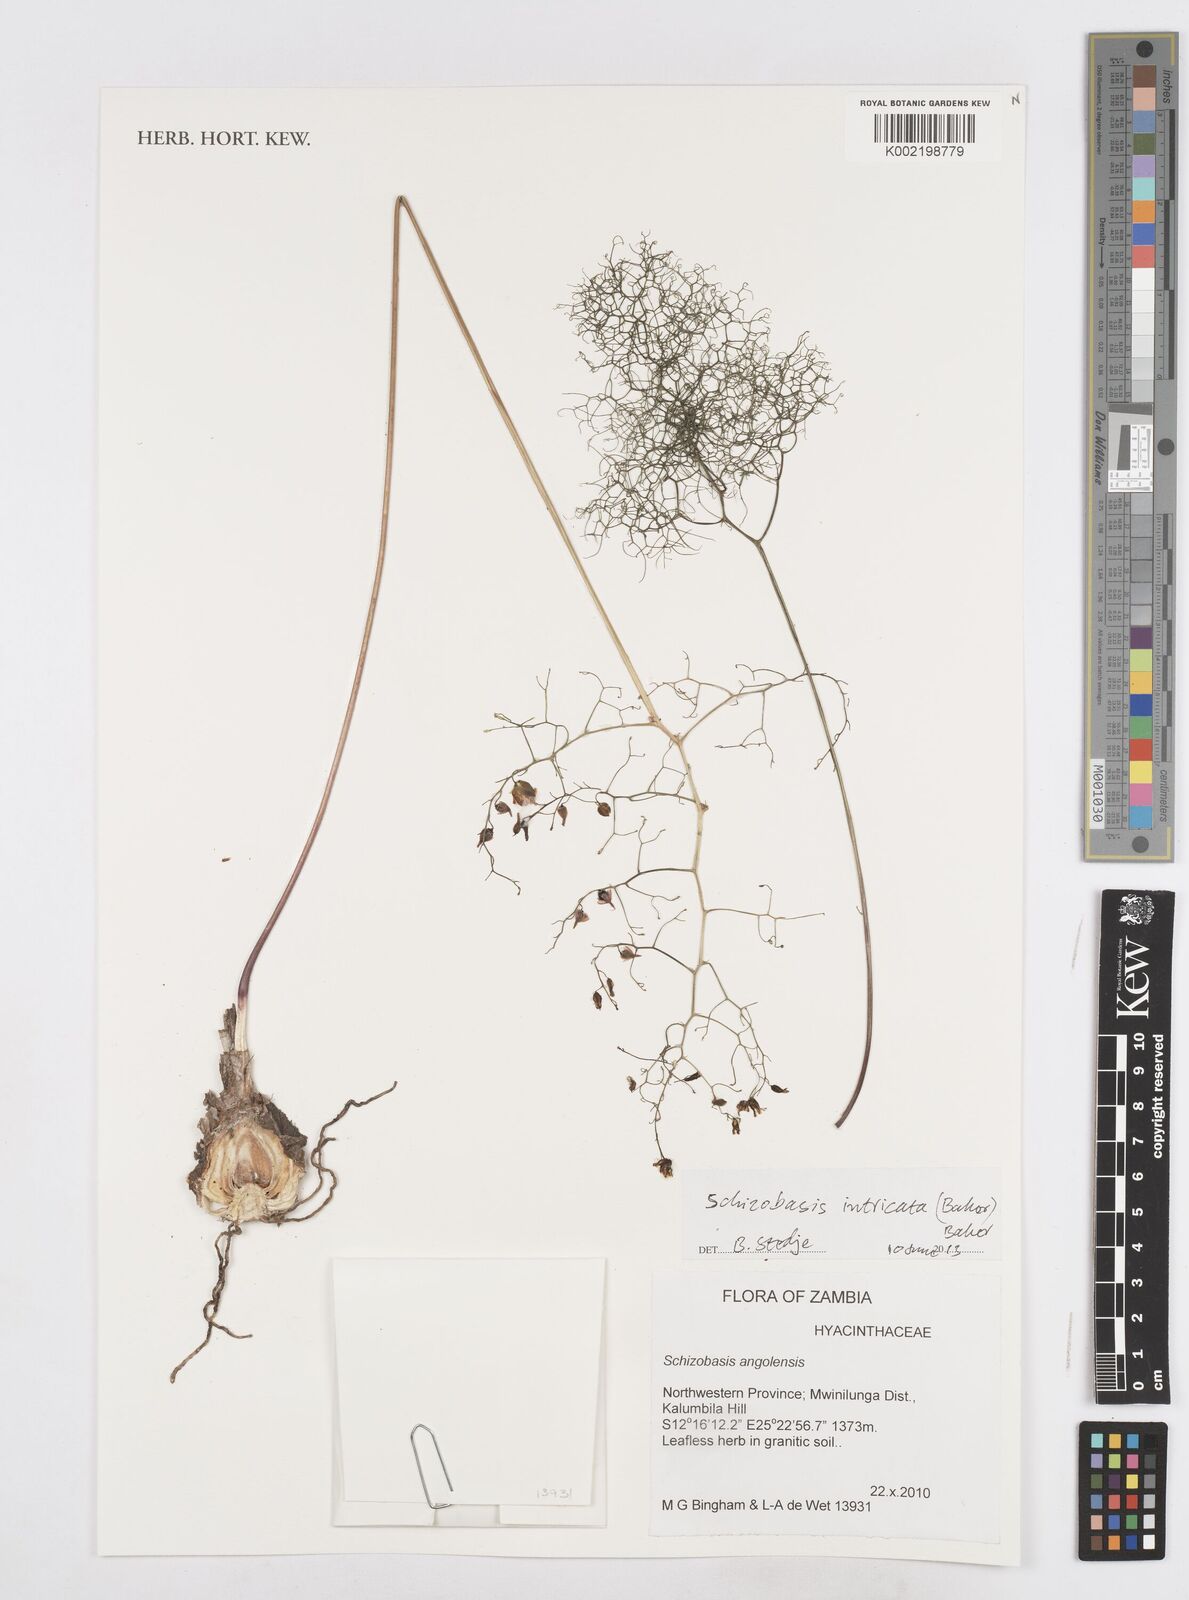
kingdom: Plantae
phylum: Tracheophyta
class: Liliopsida
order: Asparagales
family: Asparagaceae
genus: Drimia
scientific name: Drimia intricata
